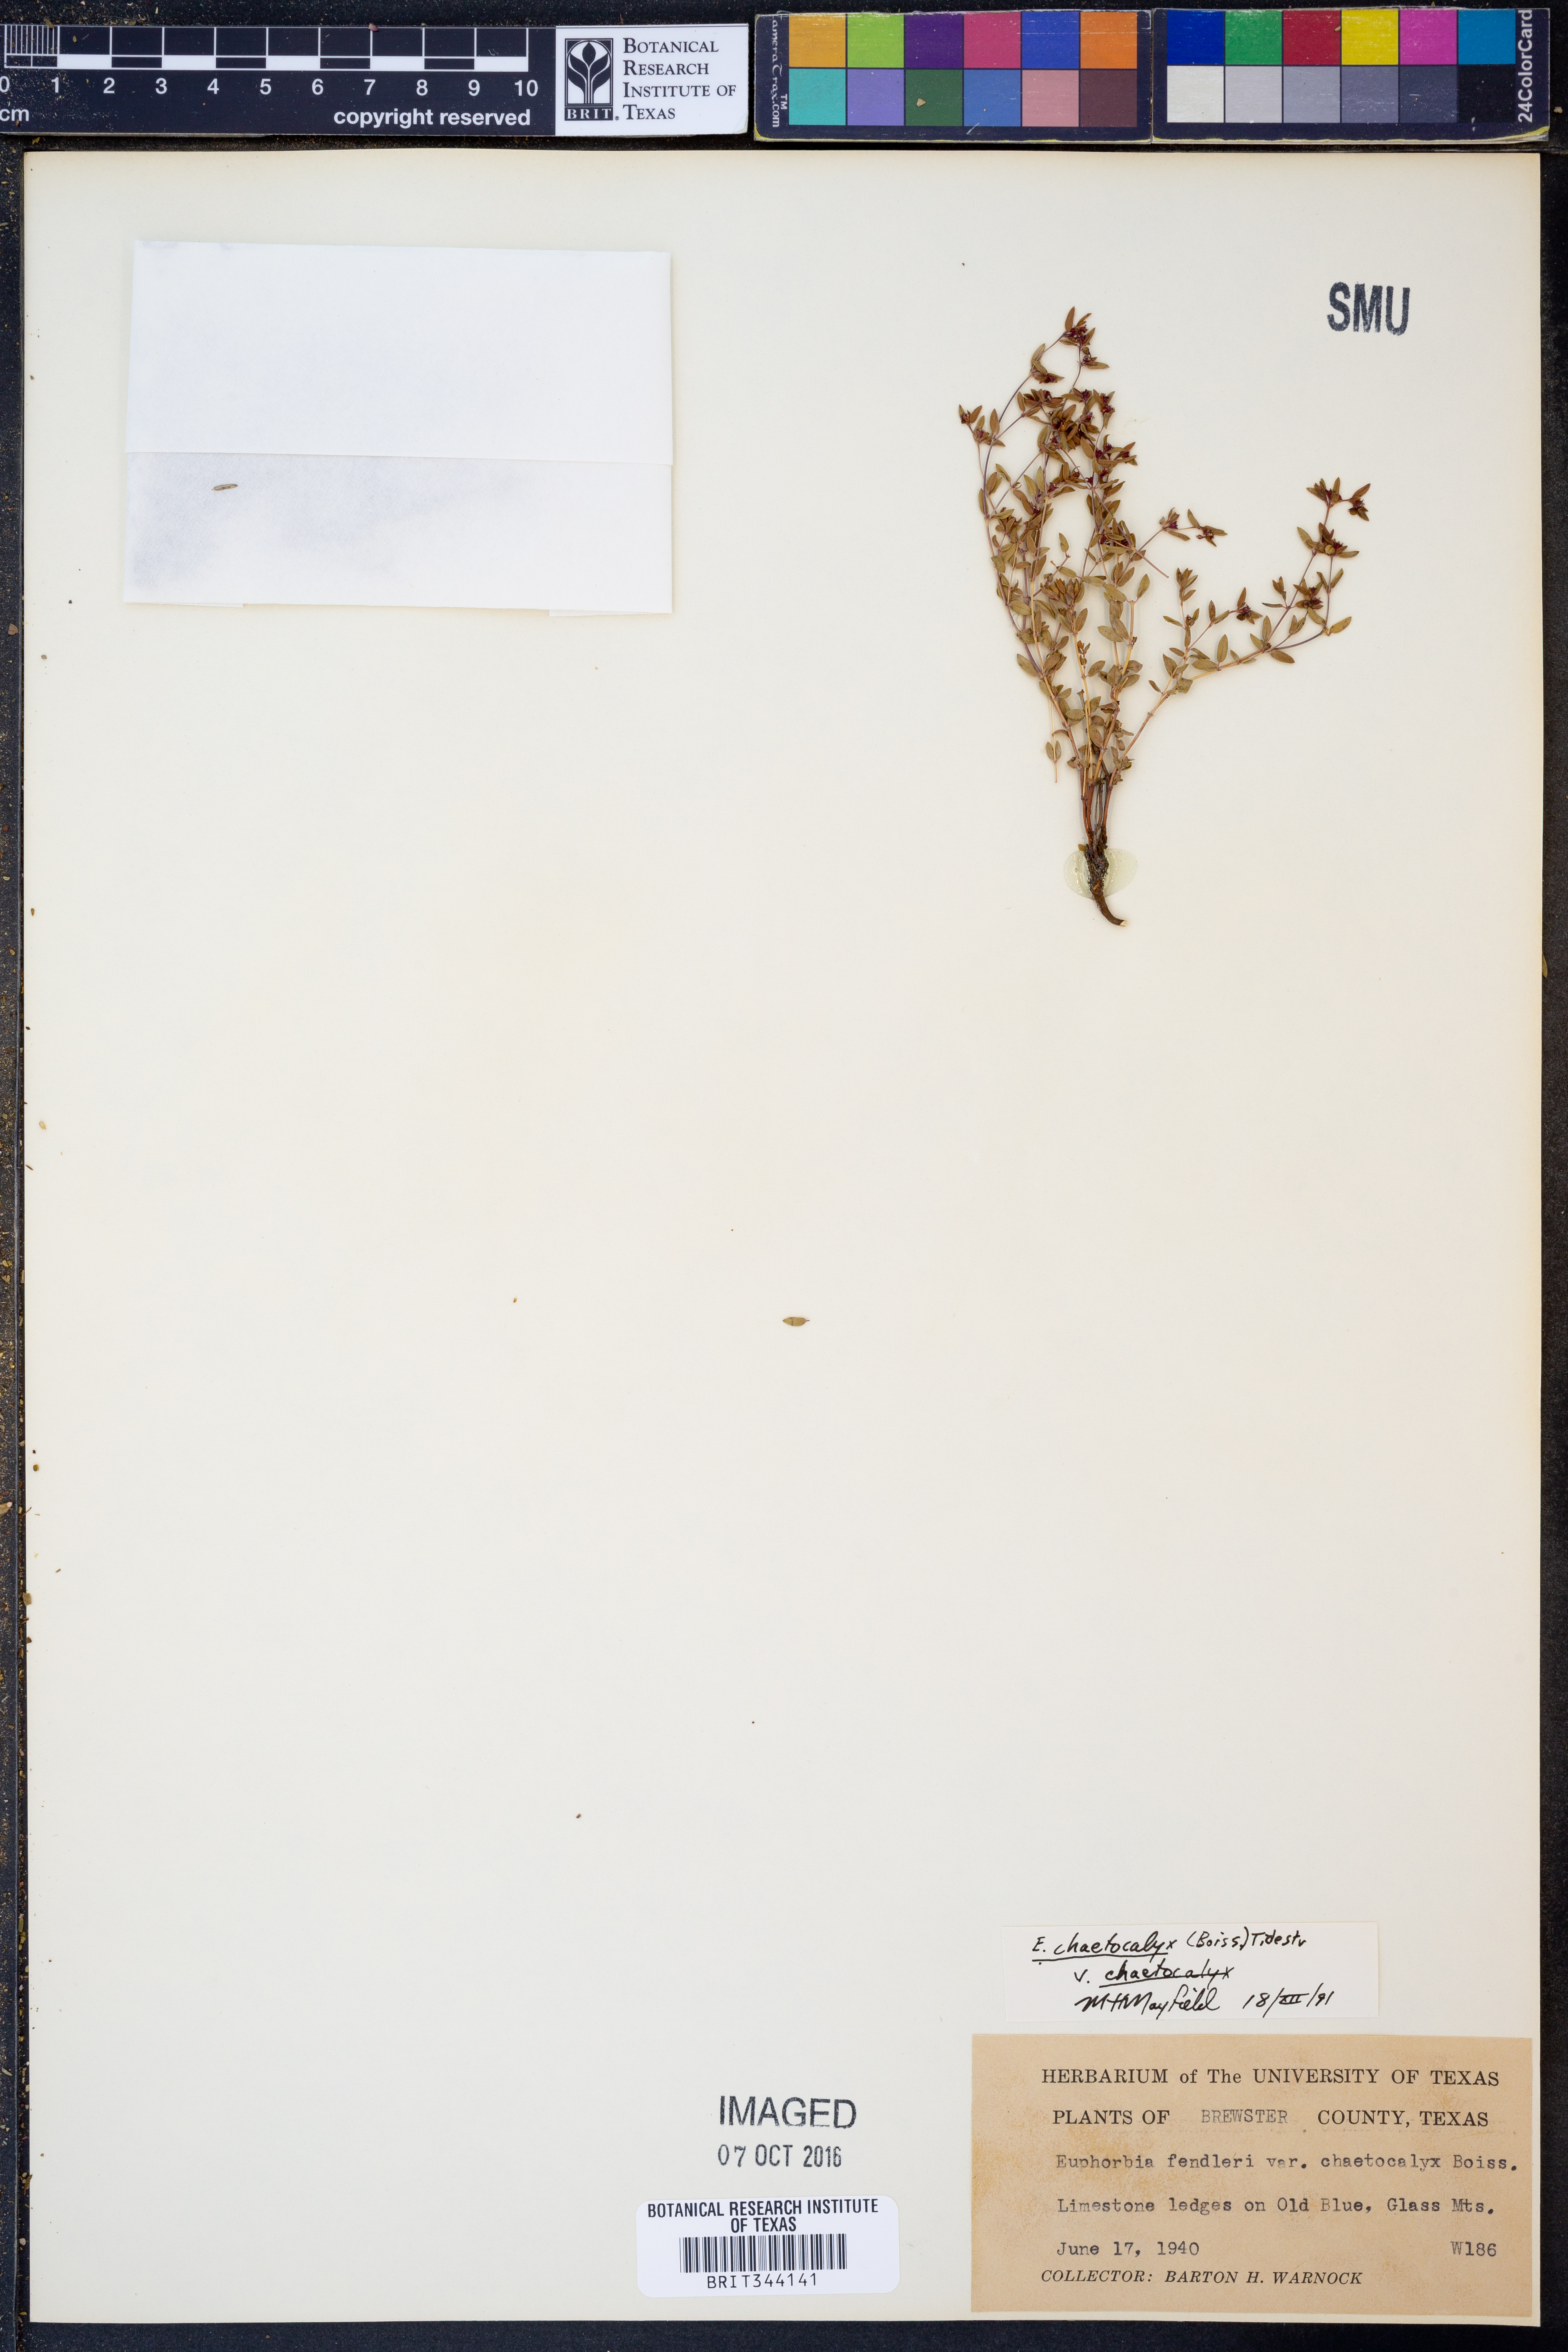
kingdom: Plantae
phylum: Tracheophyta
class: Magnoliopsida
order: Malpighiales
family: Euphorbiaceae
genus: Euphorbia
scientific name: Euphorbia chaetocalyx
